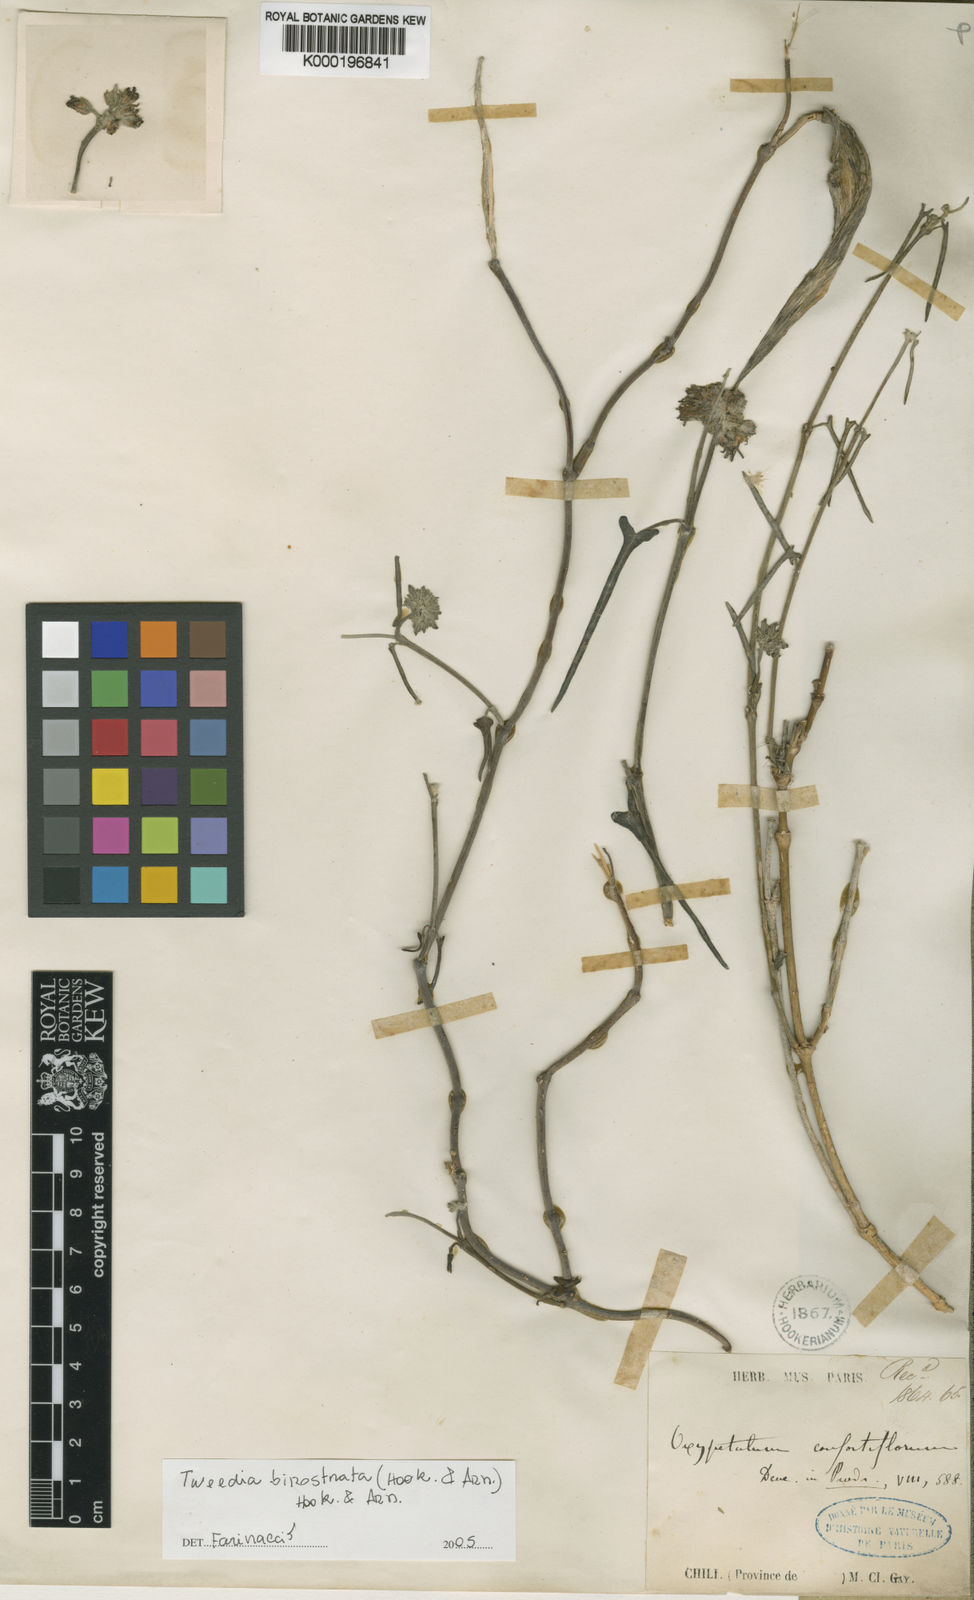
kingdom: Plantae
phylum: Tracheophyta
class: Magnoliopsida
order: Gentianales
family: Apocynaceae
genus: Tweedia
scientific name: Tweedia birostrata
